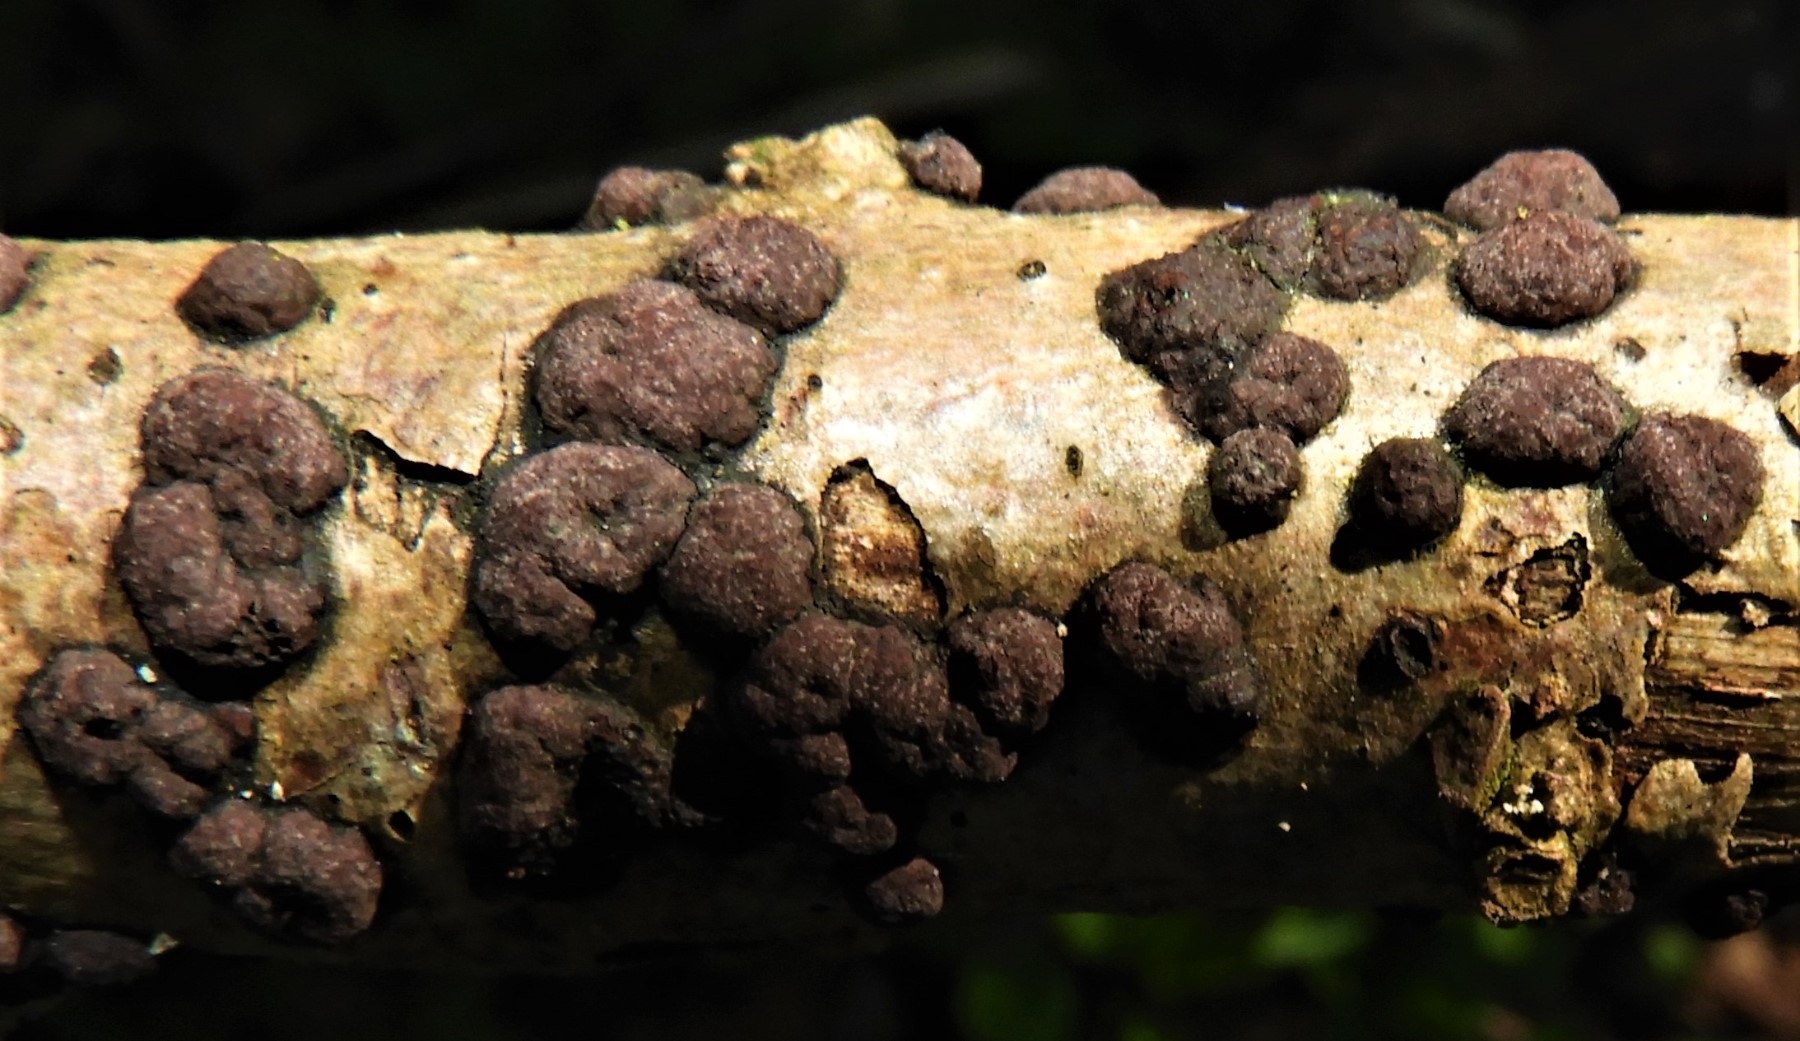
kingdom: Fungi
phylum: Ascomycota
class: Sordariomycetes
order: Xylariales
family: Hypoxylaceae
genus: Hypoxylon
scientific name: Hypoxylon fuscum
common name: kegleformet kulbær
